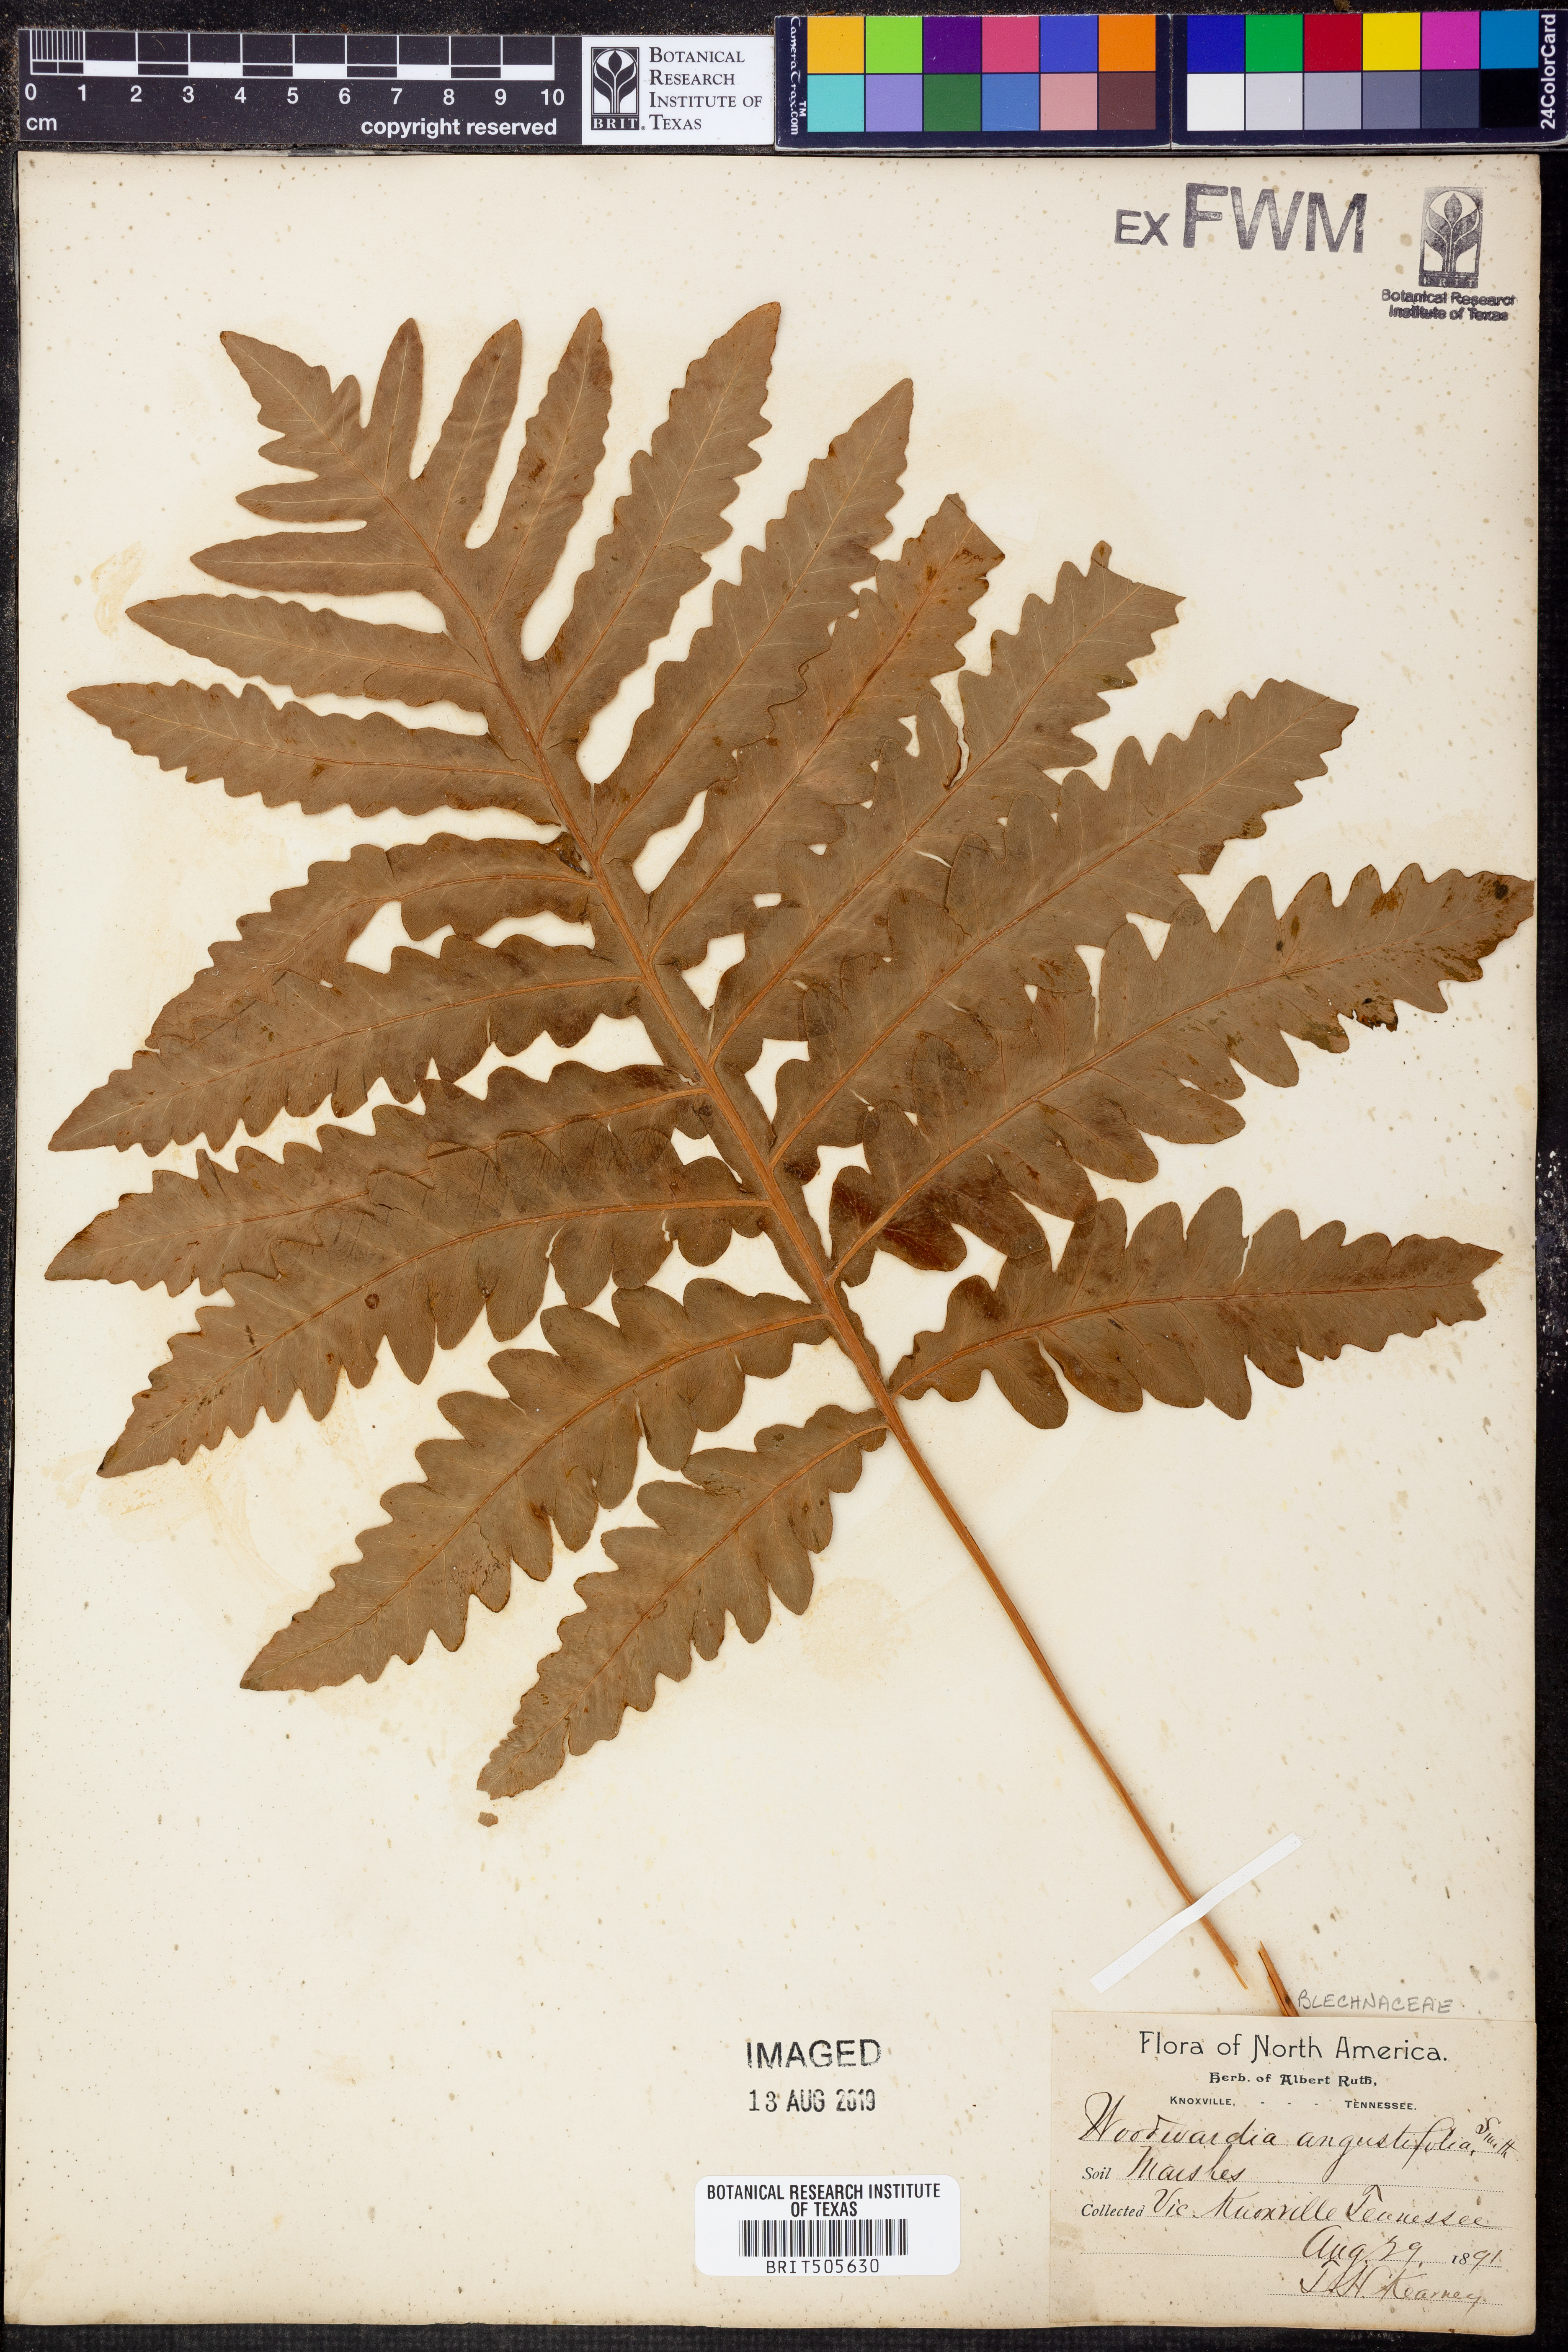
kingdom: Plantae
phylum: Tracheophyta
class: Polypodiopsida
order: Polypodiales
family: Blechnaceae
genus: Lorinseria
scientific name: Lorinseria areolata
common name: Dwarf chain fern
